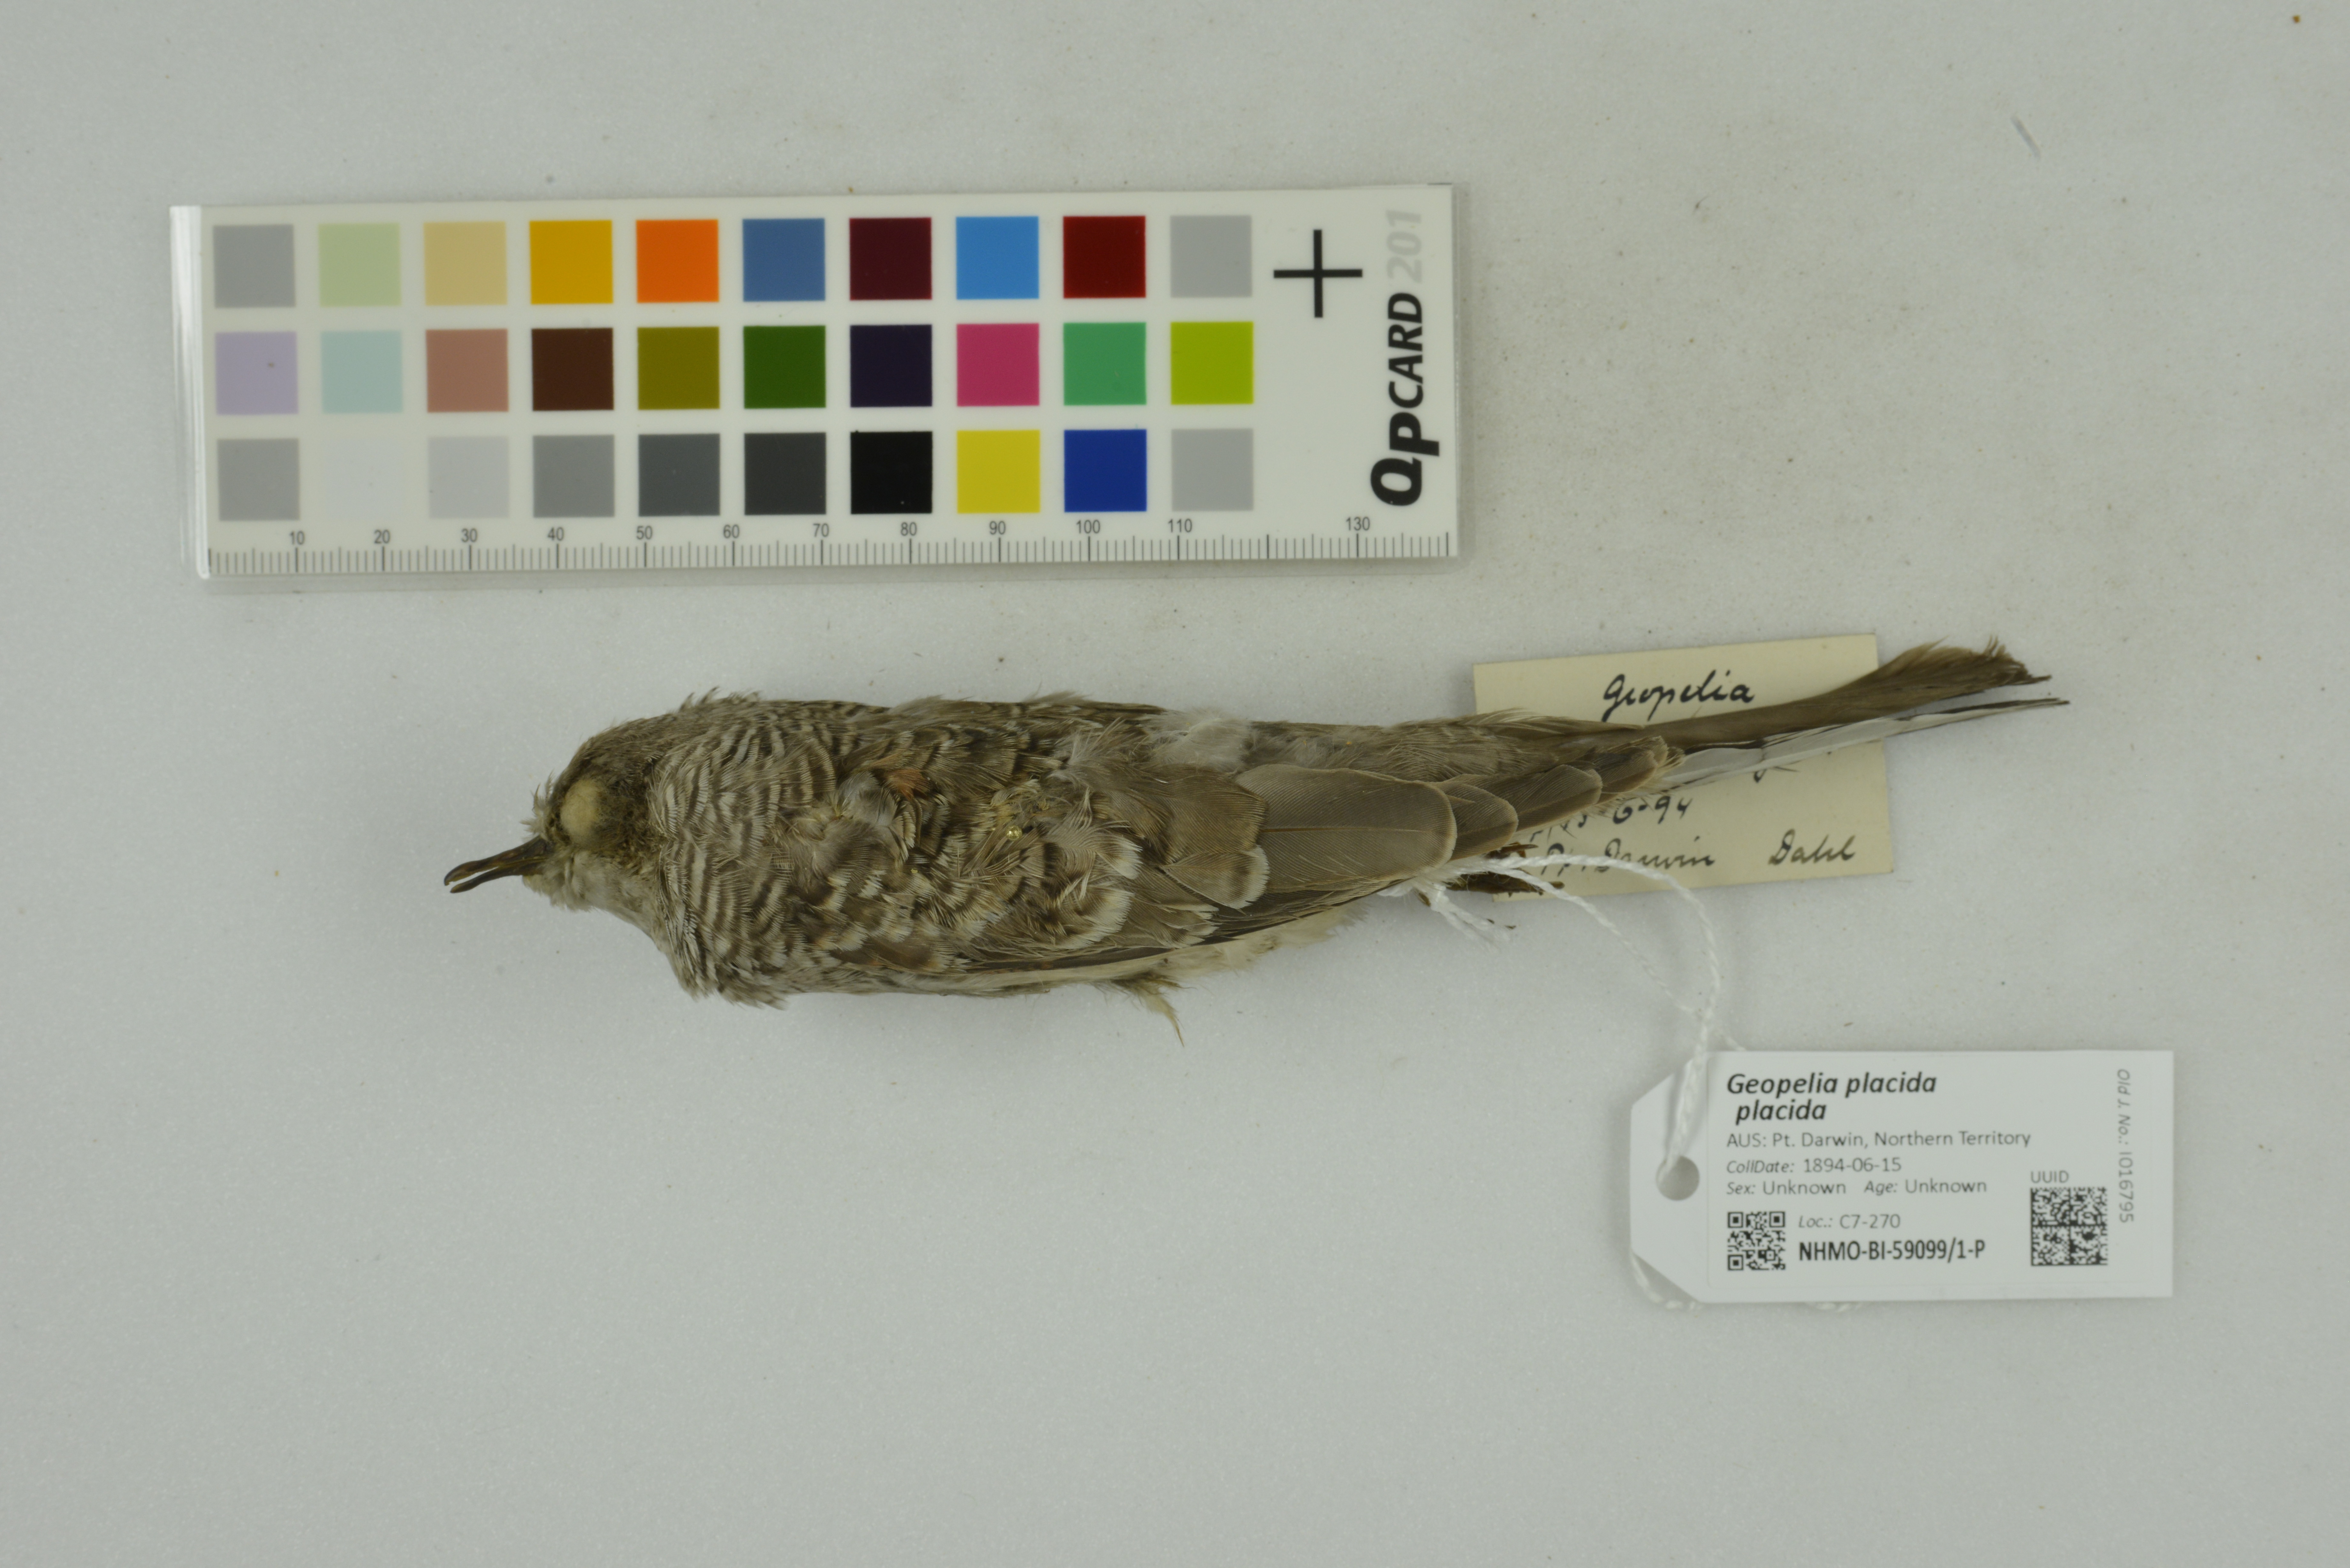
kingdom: Animalia
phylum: Chordata
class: Aves
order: Columbiformes
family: Columbidae
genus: Geopelia
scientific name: Geopelia placida
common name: Peaceful dove
